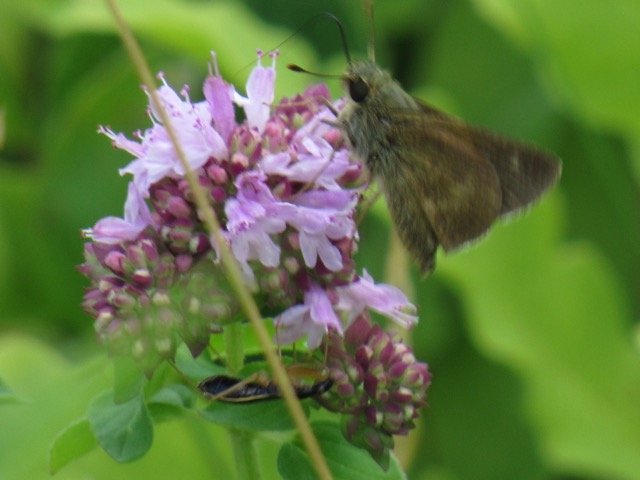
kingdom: Animalia
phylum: Arthropoda
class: Insecta
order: Lepidoptera
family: Hesperiidae
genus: Polites
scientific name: Polites egeremet
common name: Northern Broken-Dash
